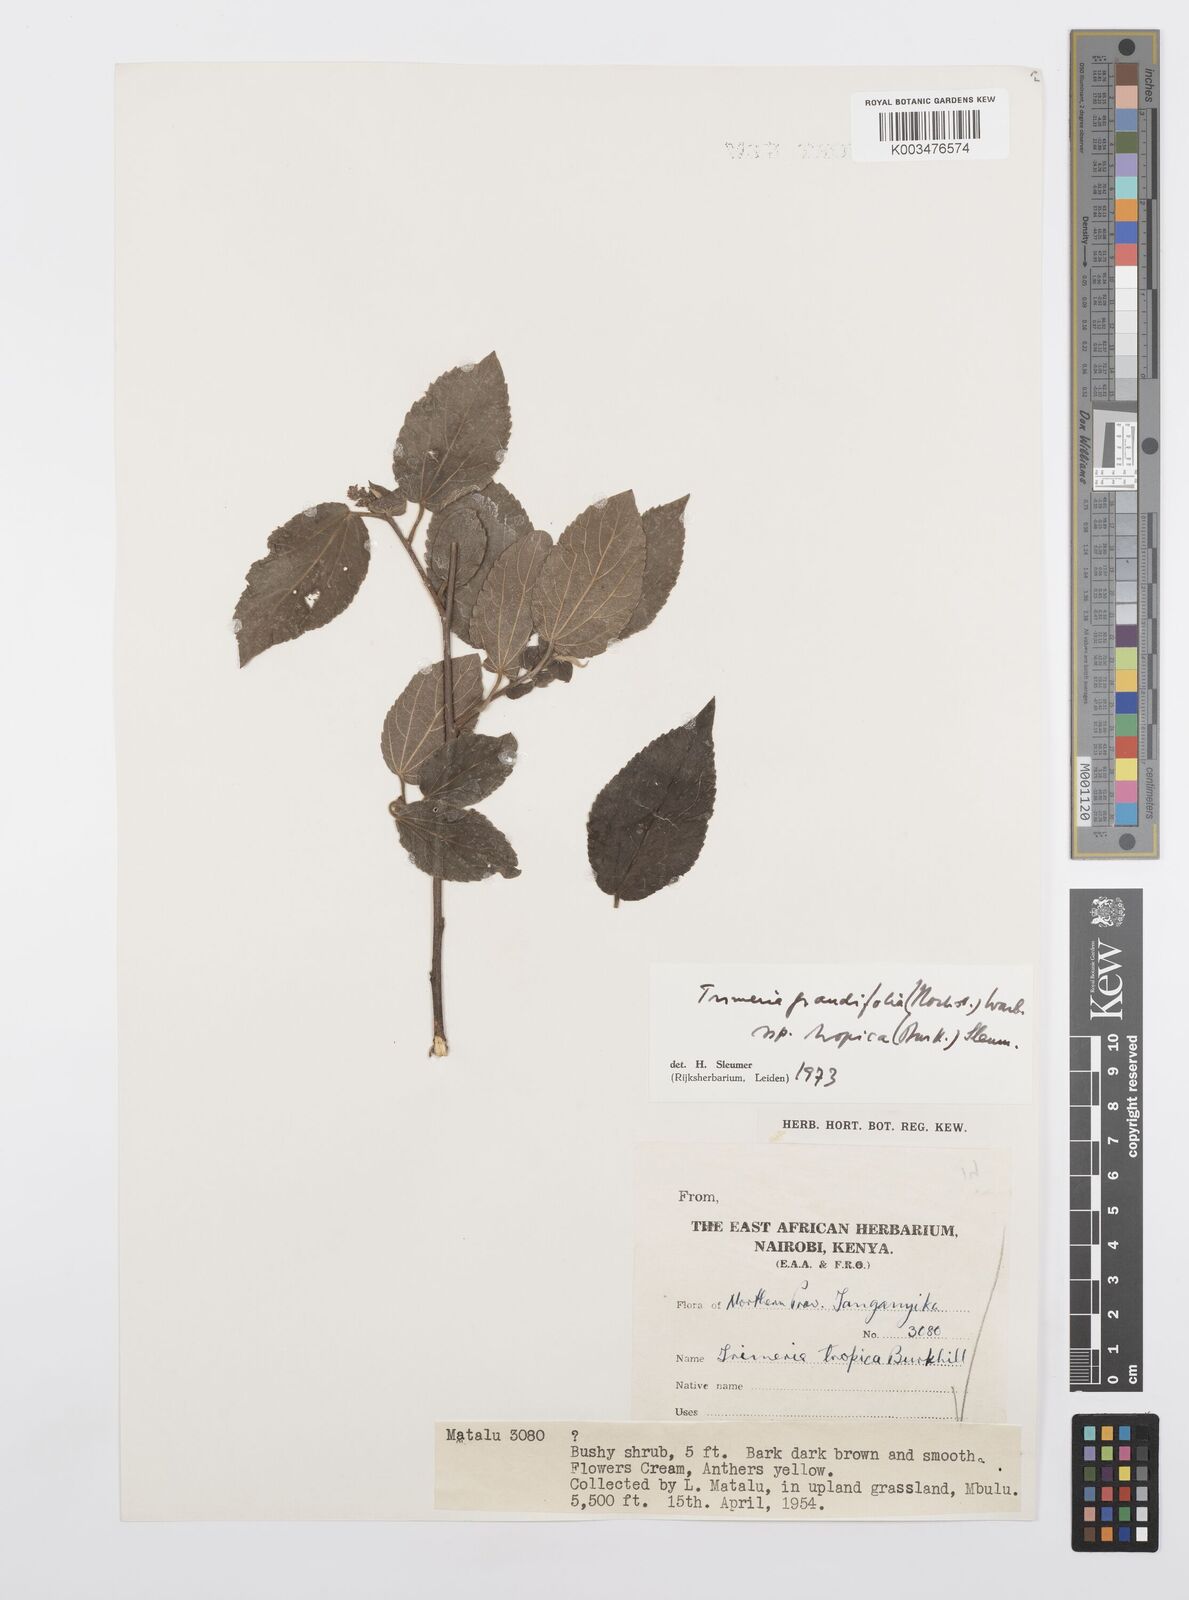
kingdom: Plantae
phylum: Tracheophyta
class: Magnoliopsida
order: Malpighiales
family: Salicaceae
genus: Trimeria
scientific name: Trimeria grandifolia
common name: Wild mulberry
